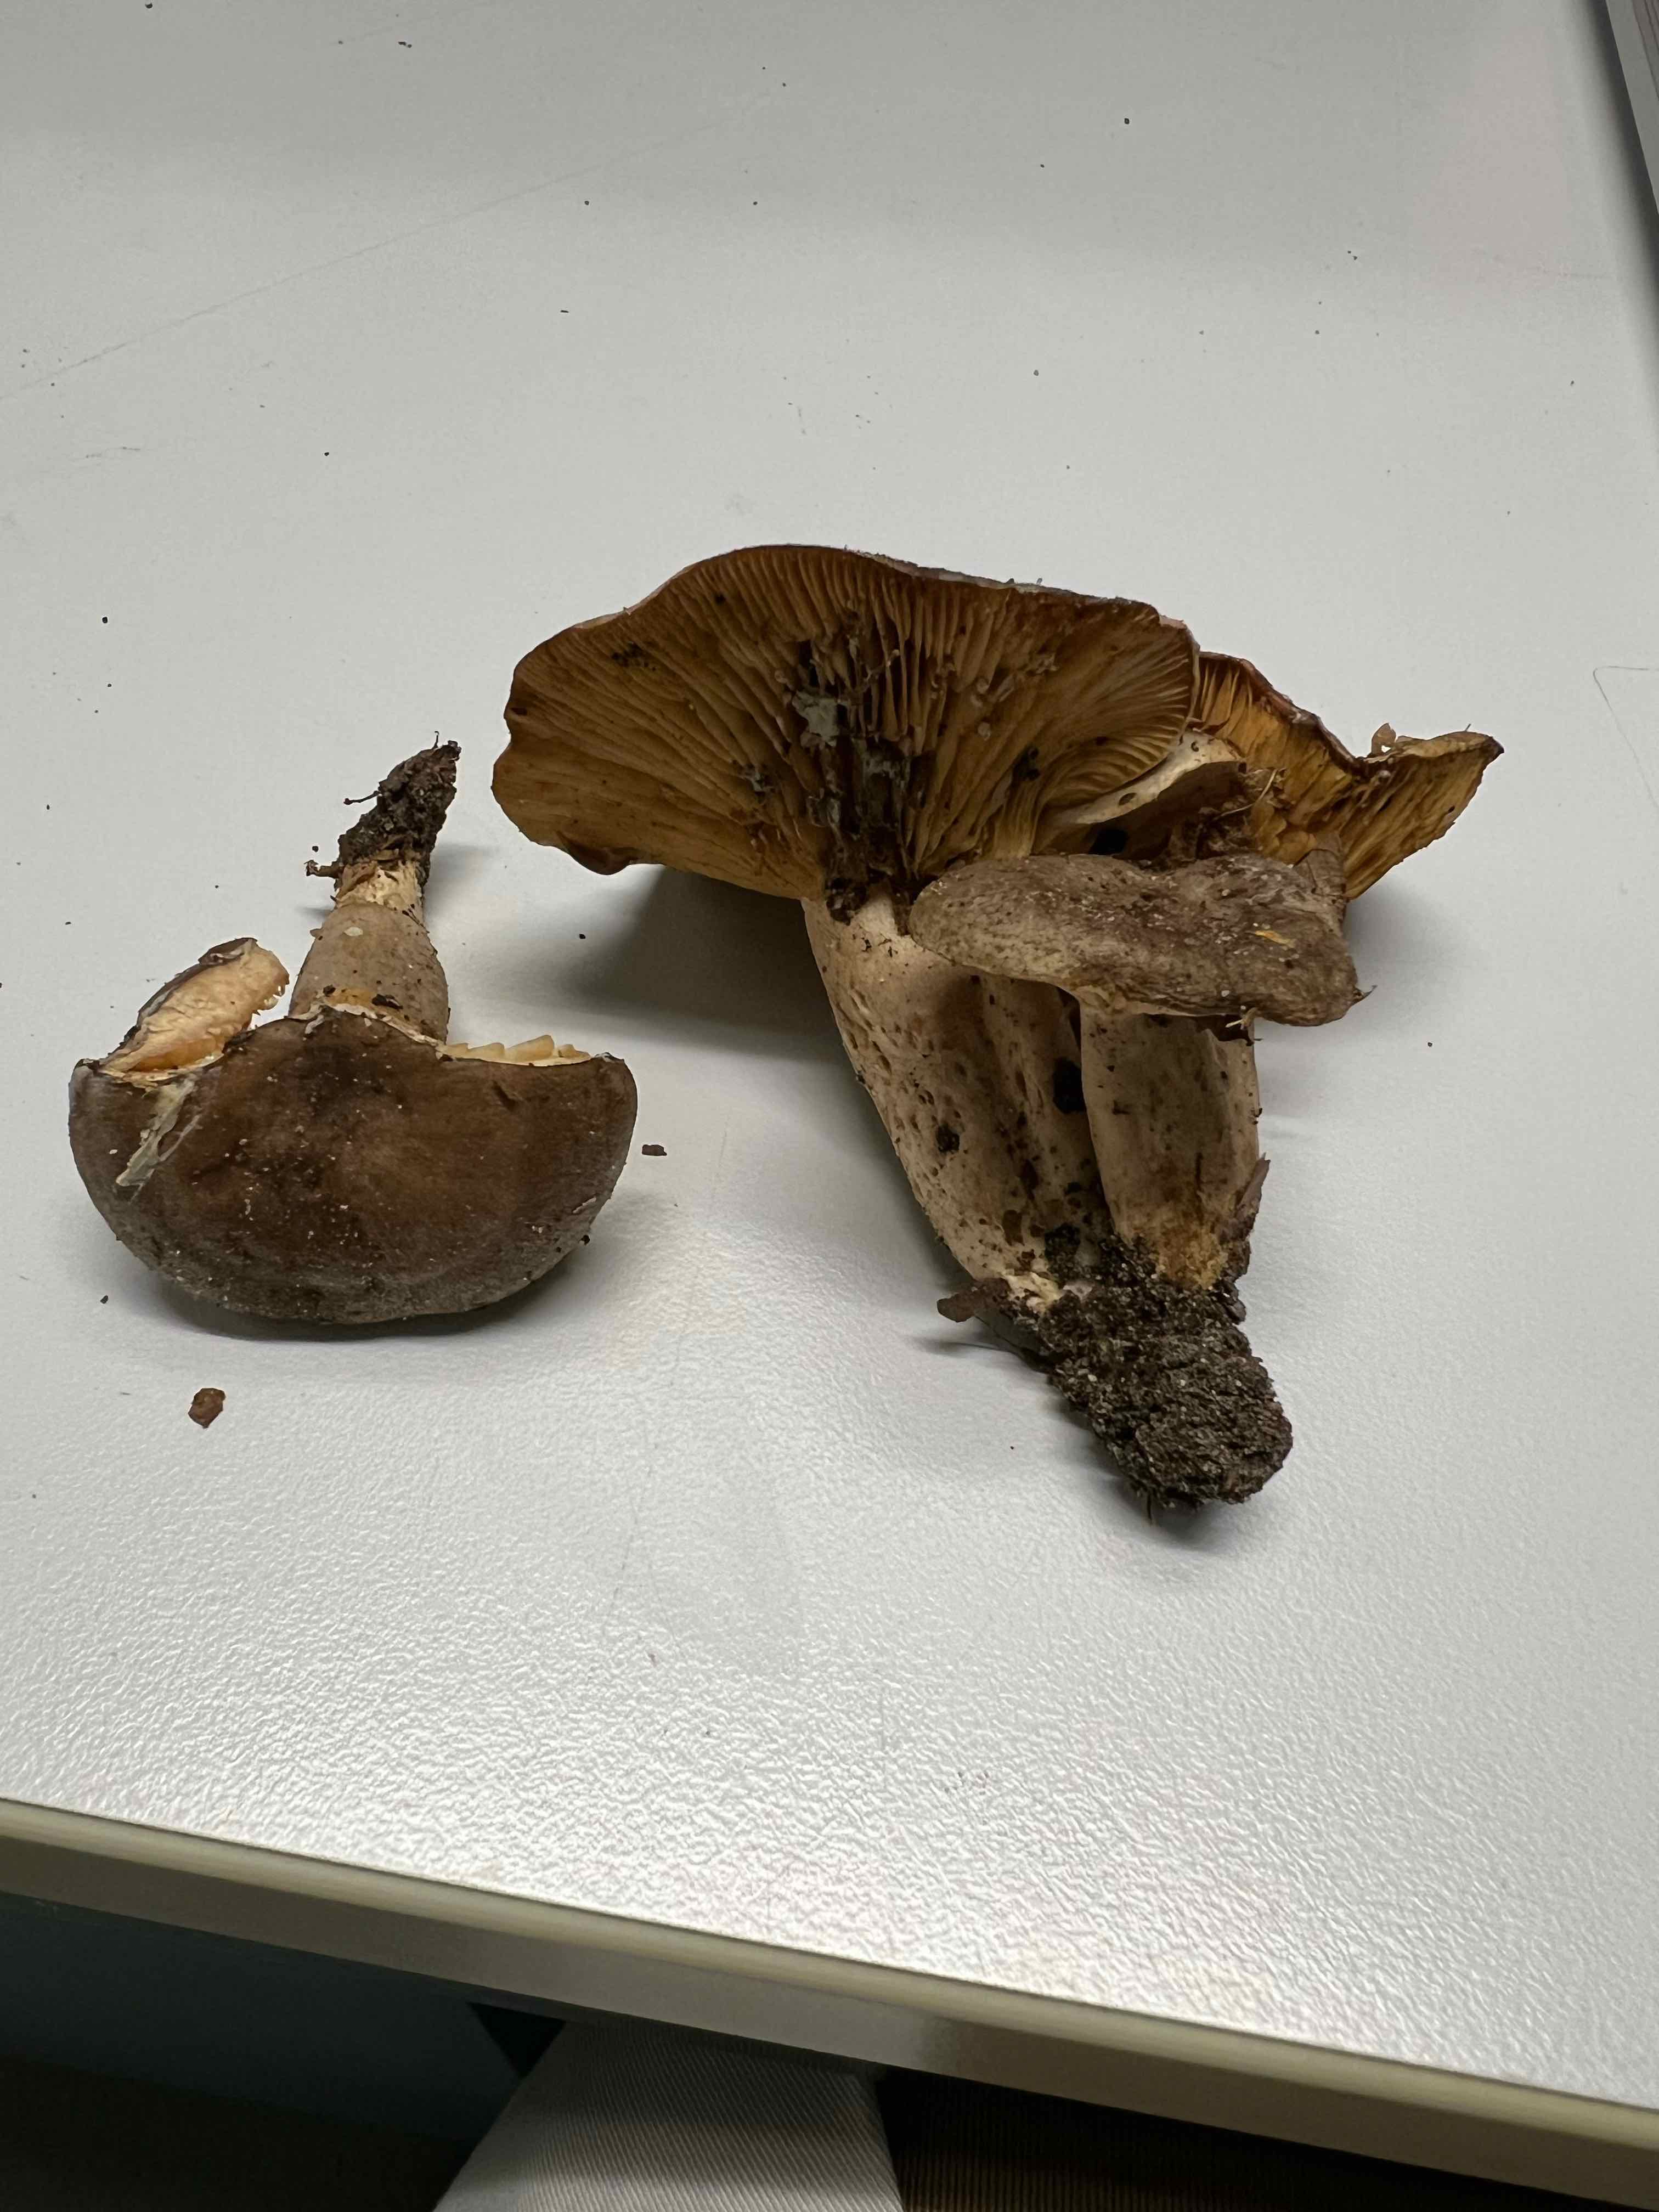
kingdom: Fungi
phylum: Basidiomycota
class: Agaricomycetes
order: Russulales
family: Russulaceae
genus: Lactarius
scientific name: Lactarius pyrogalus
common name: hassel-mælkehat
